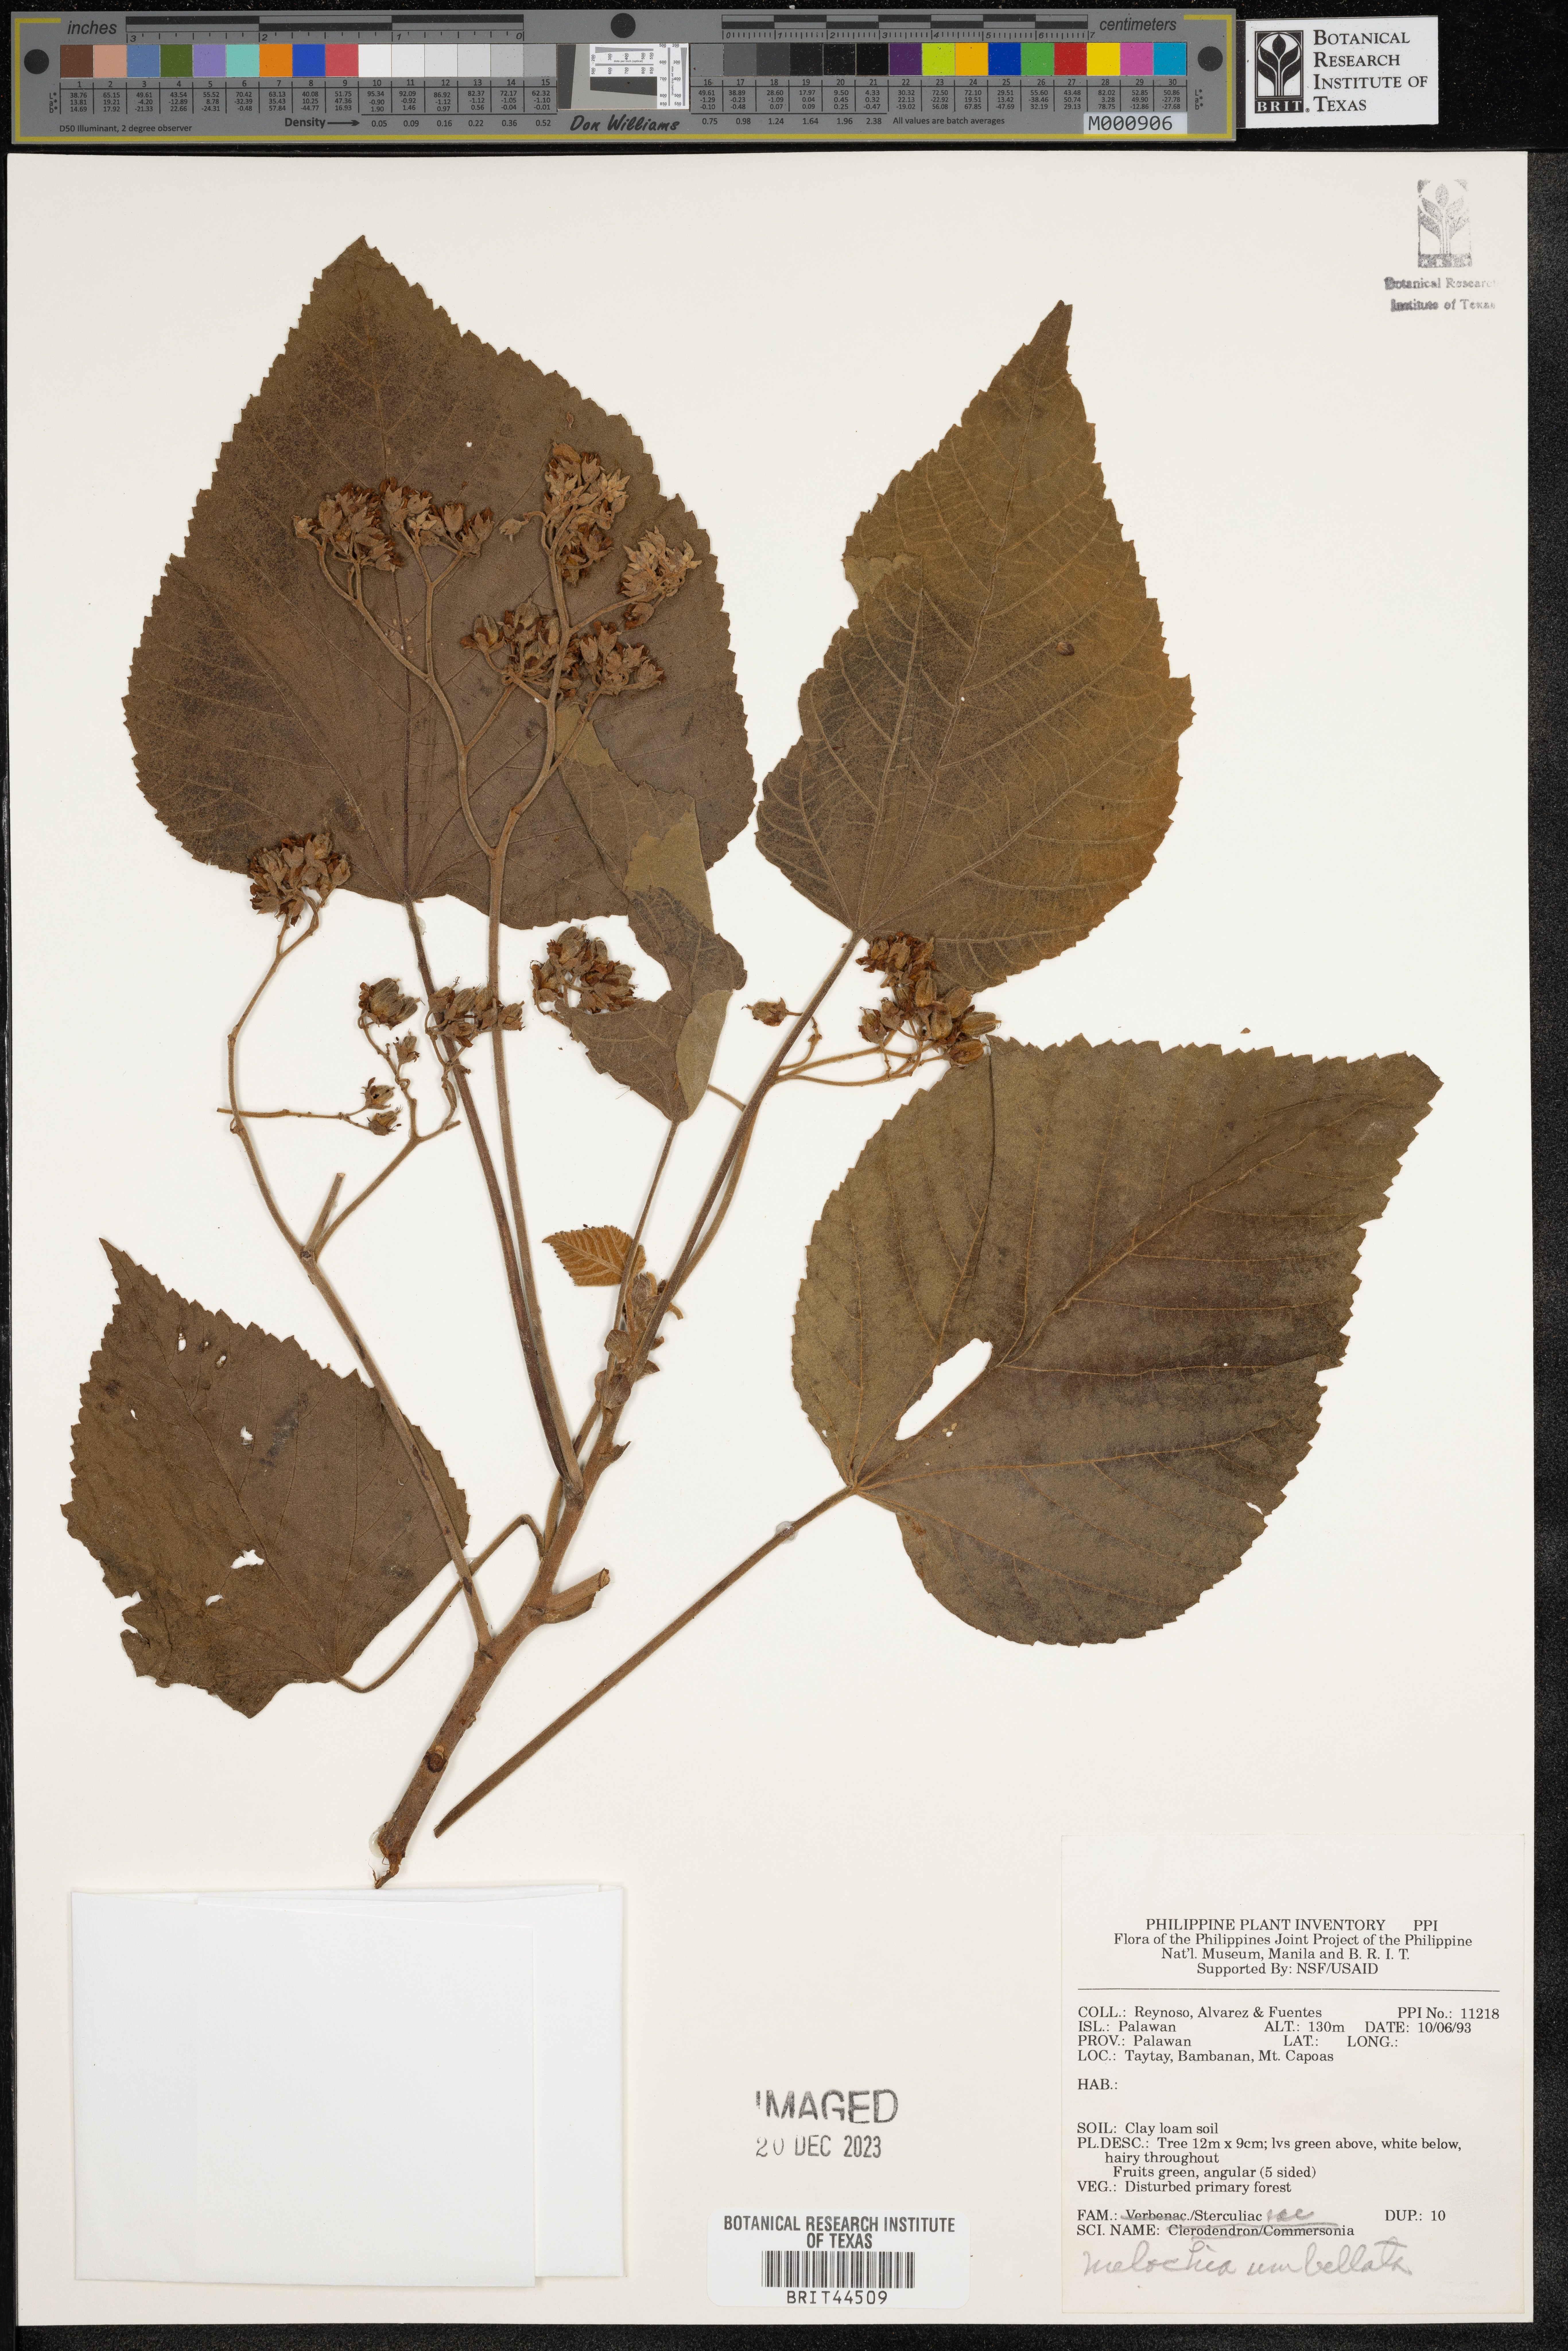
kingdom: Plantae
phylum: Tracheophyta
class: Magnoliopsida
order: Malvales
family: Malvaceae
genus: Melochia
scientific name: Melochia umbellata
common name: Gunpowder tree
